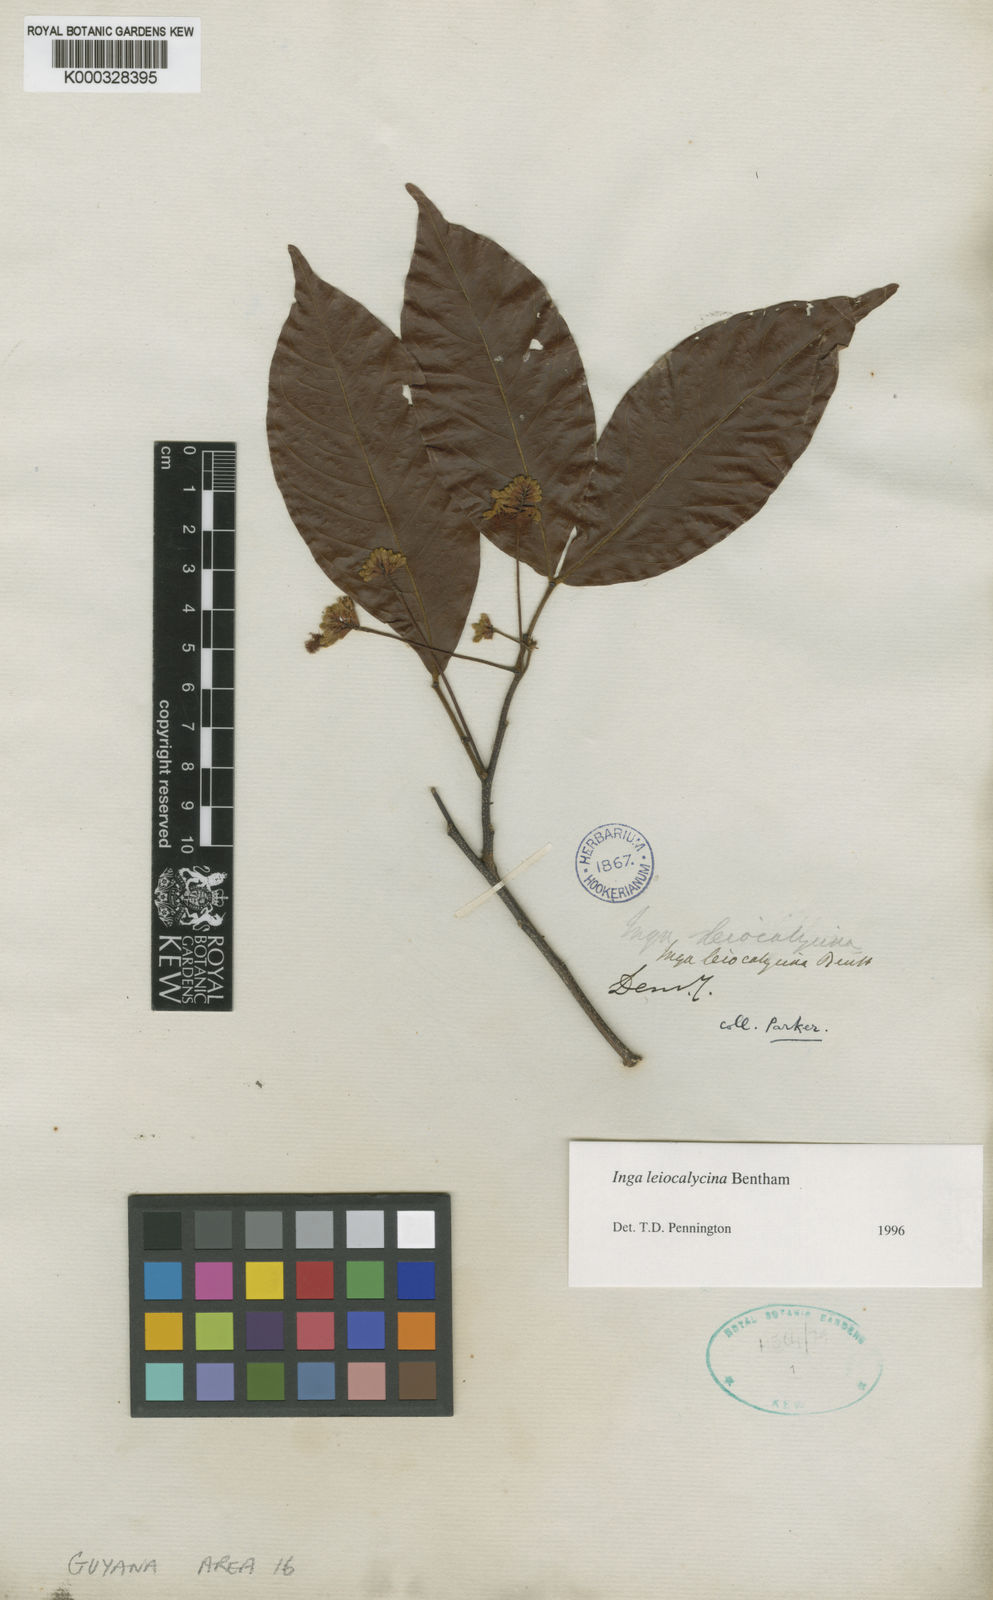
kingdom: Plantae
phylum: Tracheophyta
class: Magnoliopsida
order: Fabales
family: Fabaceae
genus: Inga
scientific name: Inga laevigata
